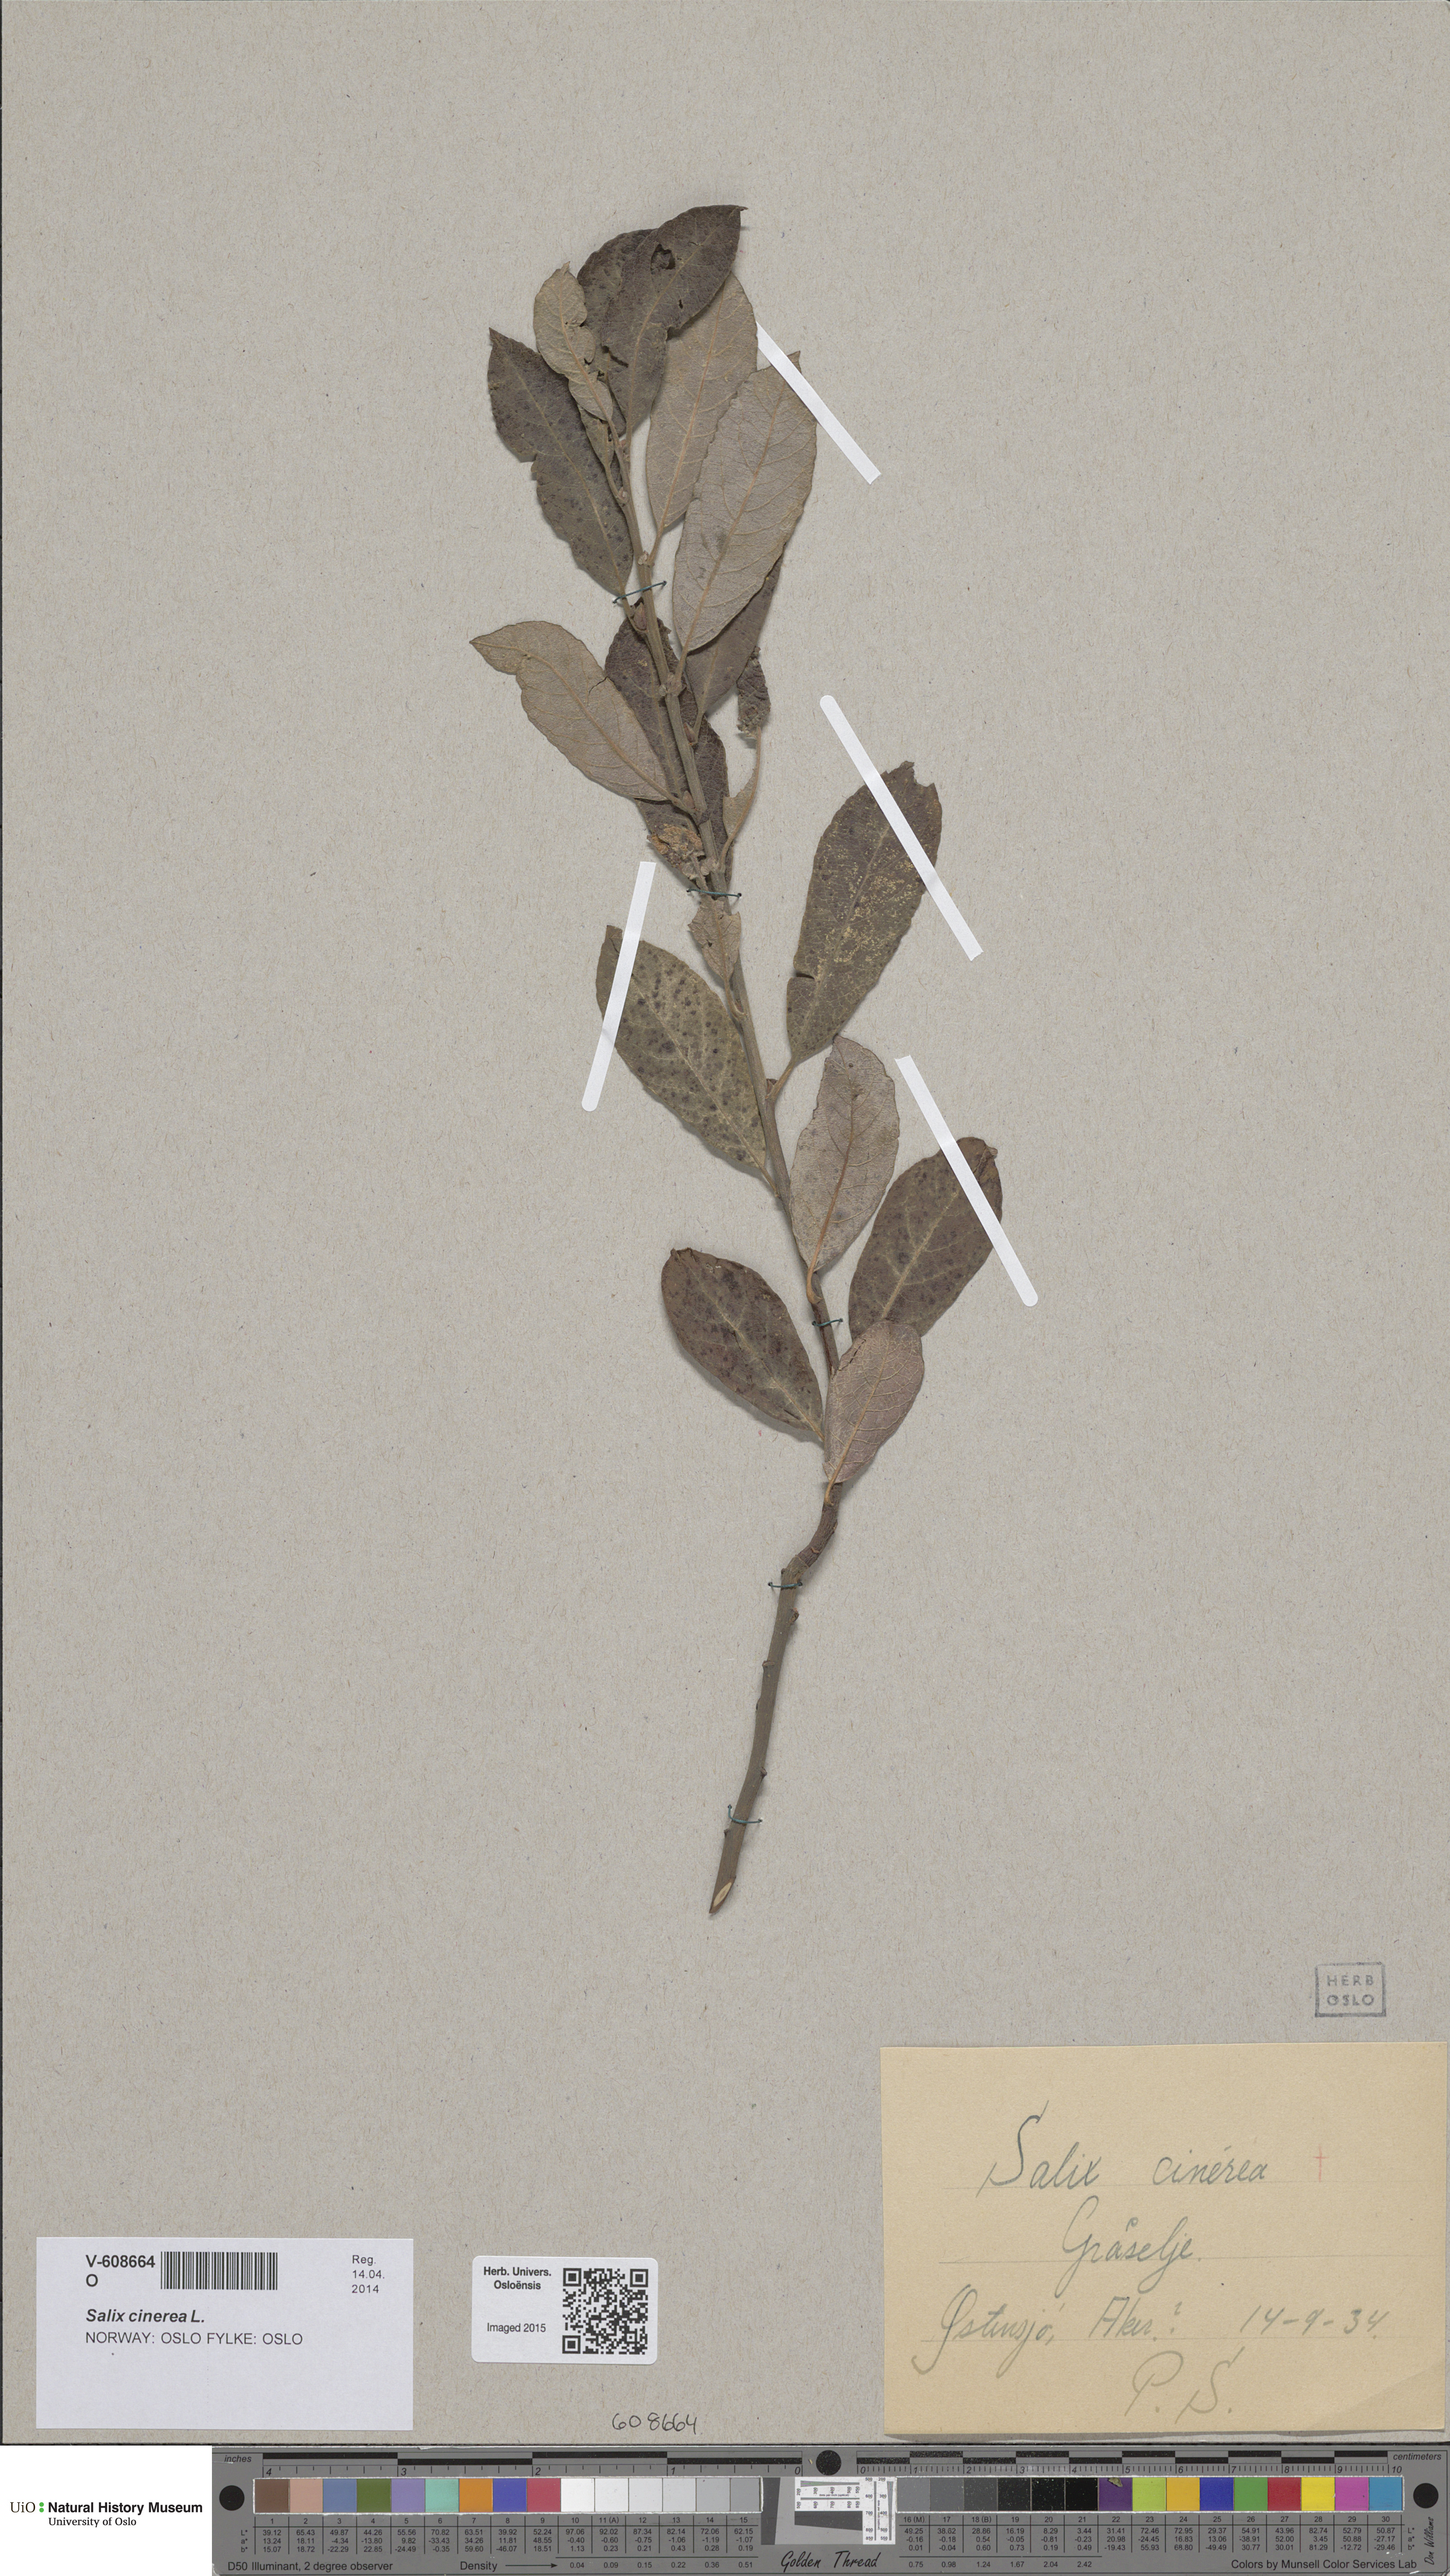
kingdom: Plantae
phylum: Tracheophyta
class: Magnoliopsida
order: Malpighiales
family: Salicaceae
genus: Salix
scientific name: Salix cinerea
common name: Common sallow
